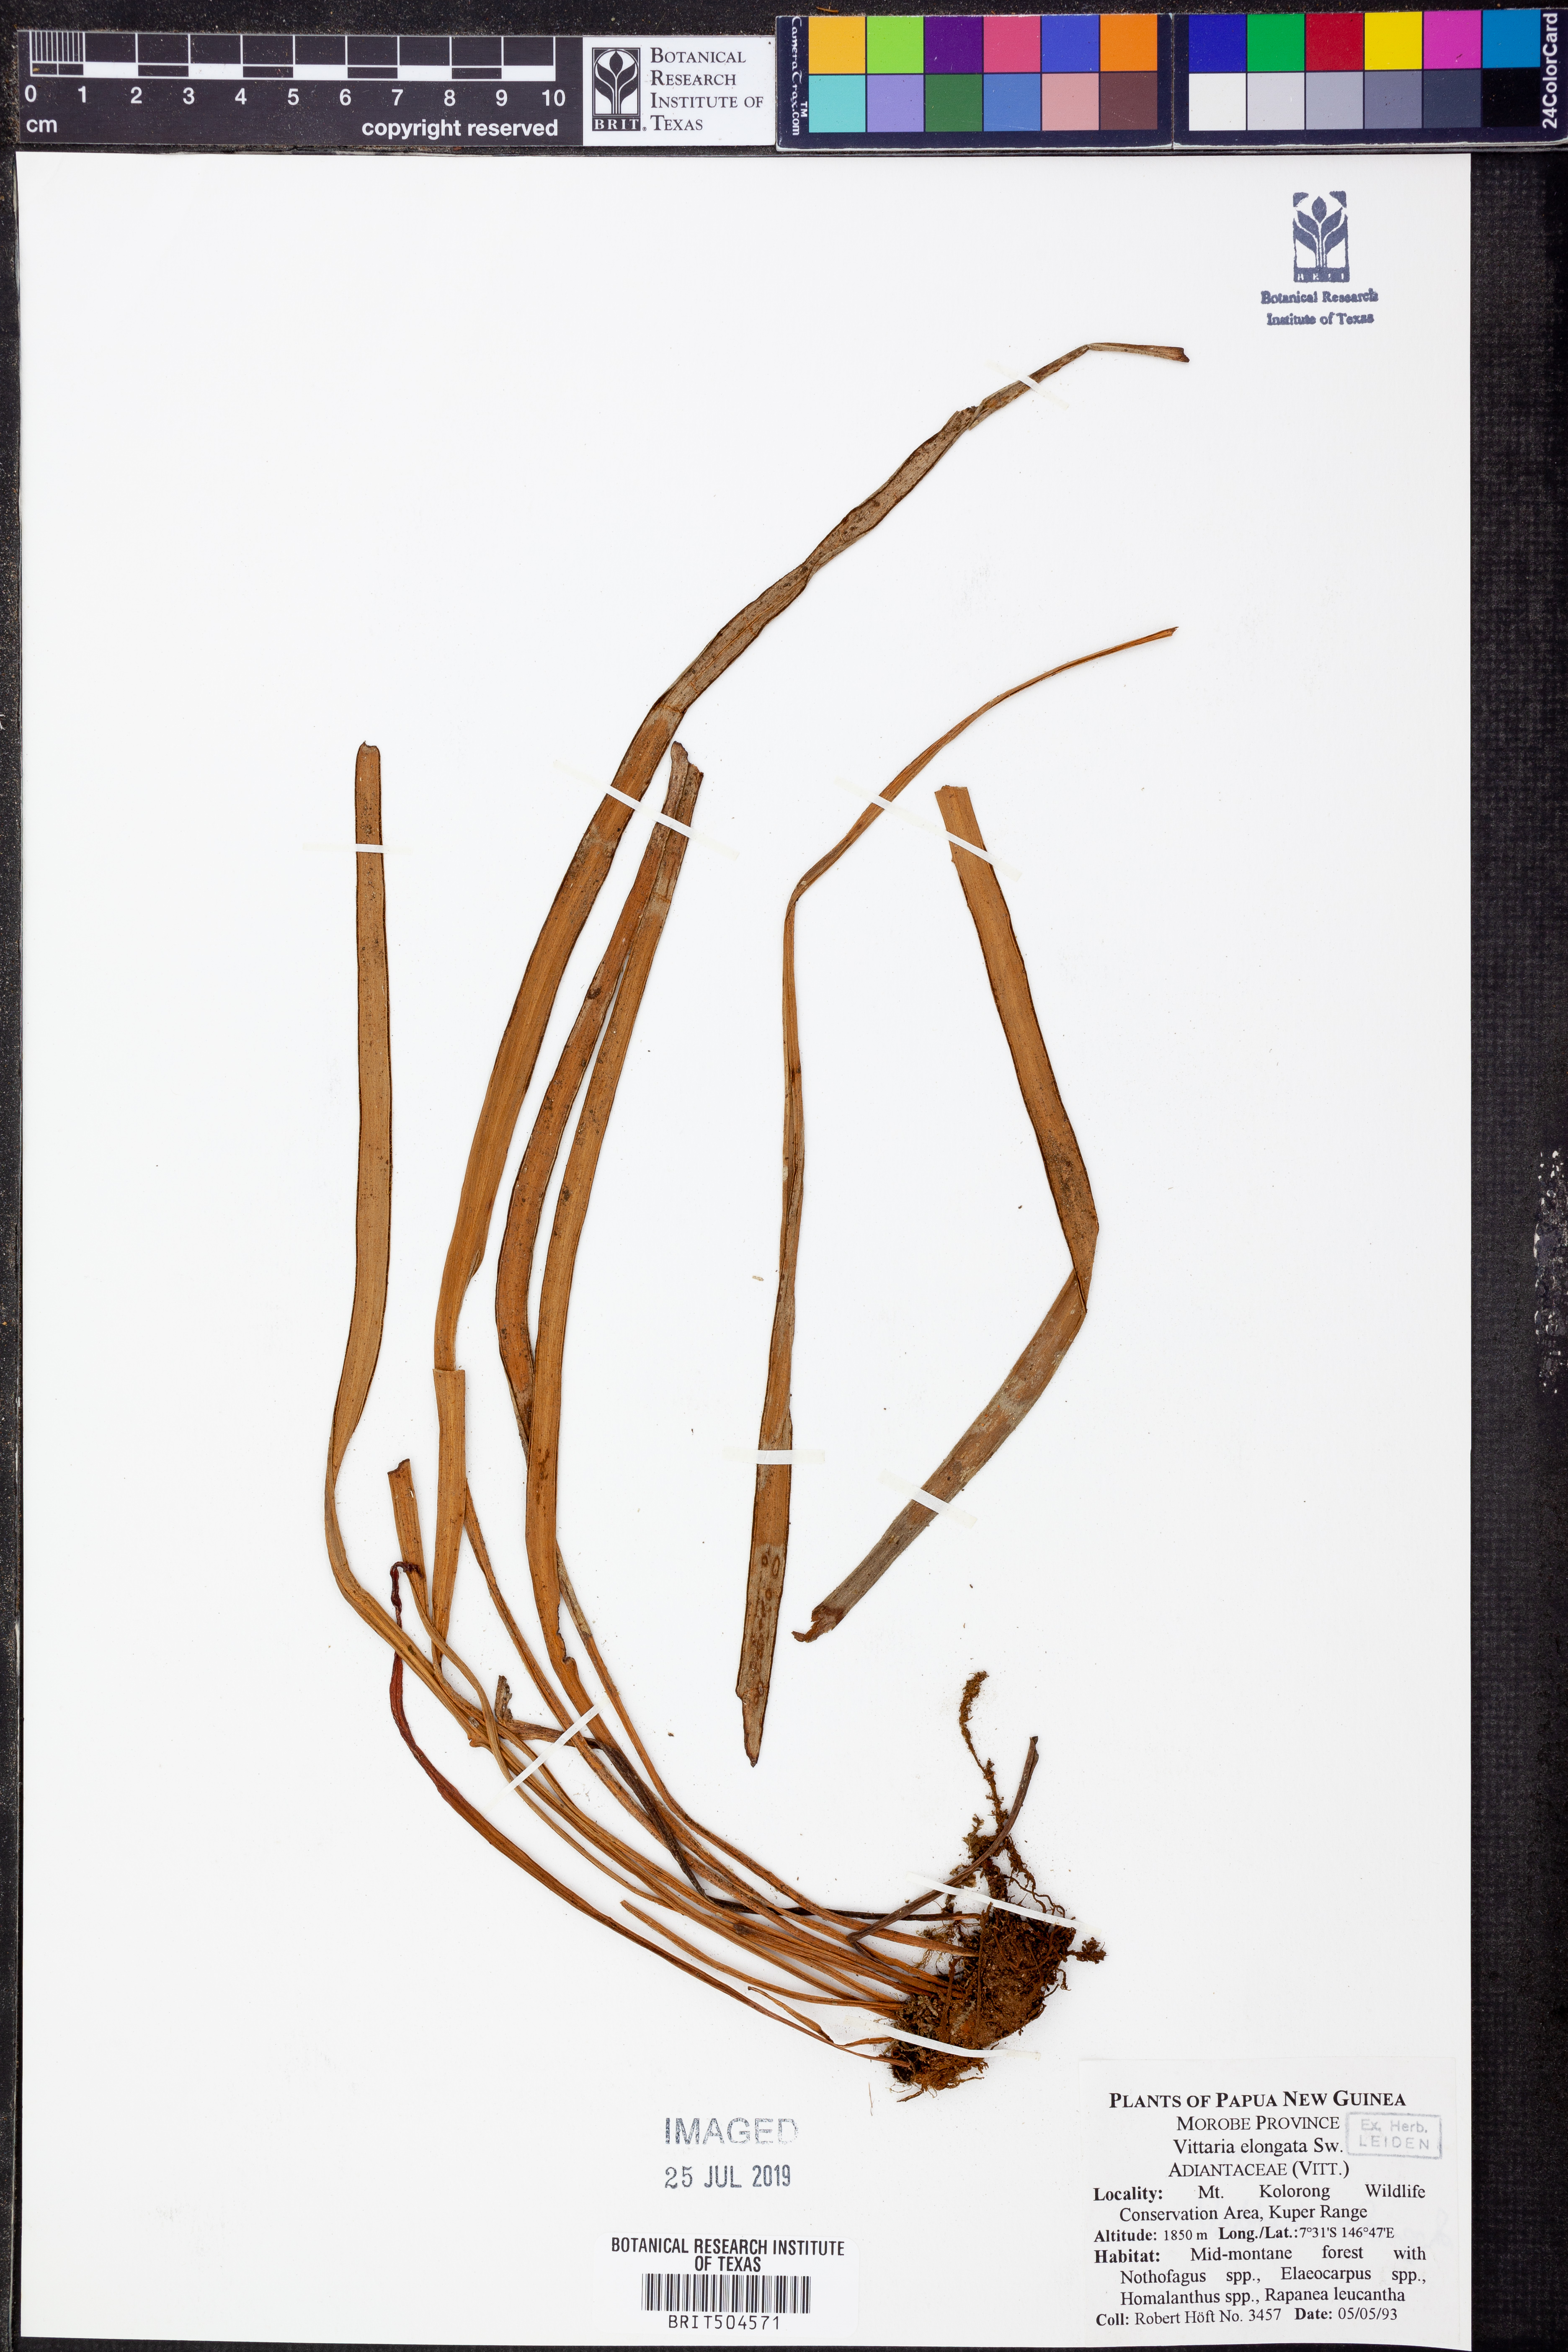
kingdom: Plantae
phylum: Tracheophyta
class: Polypodiopsida
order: Polypodiales
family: Pteridaceae
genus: Haplopteris
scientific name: Haplopteris elongata
